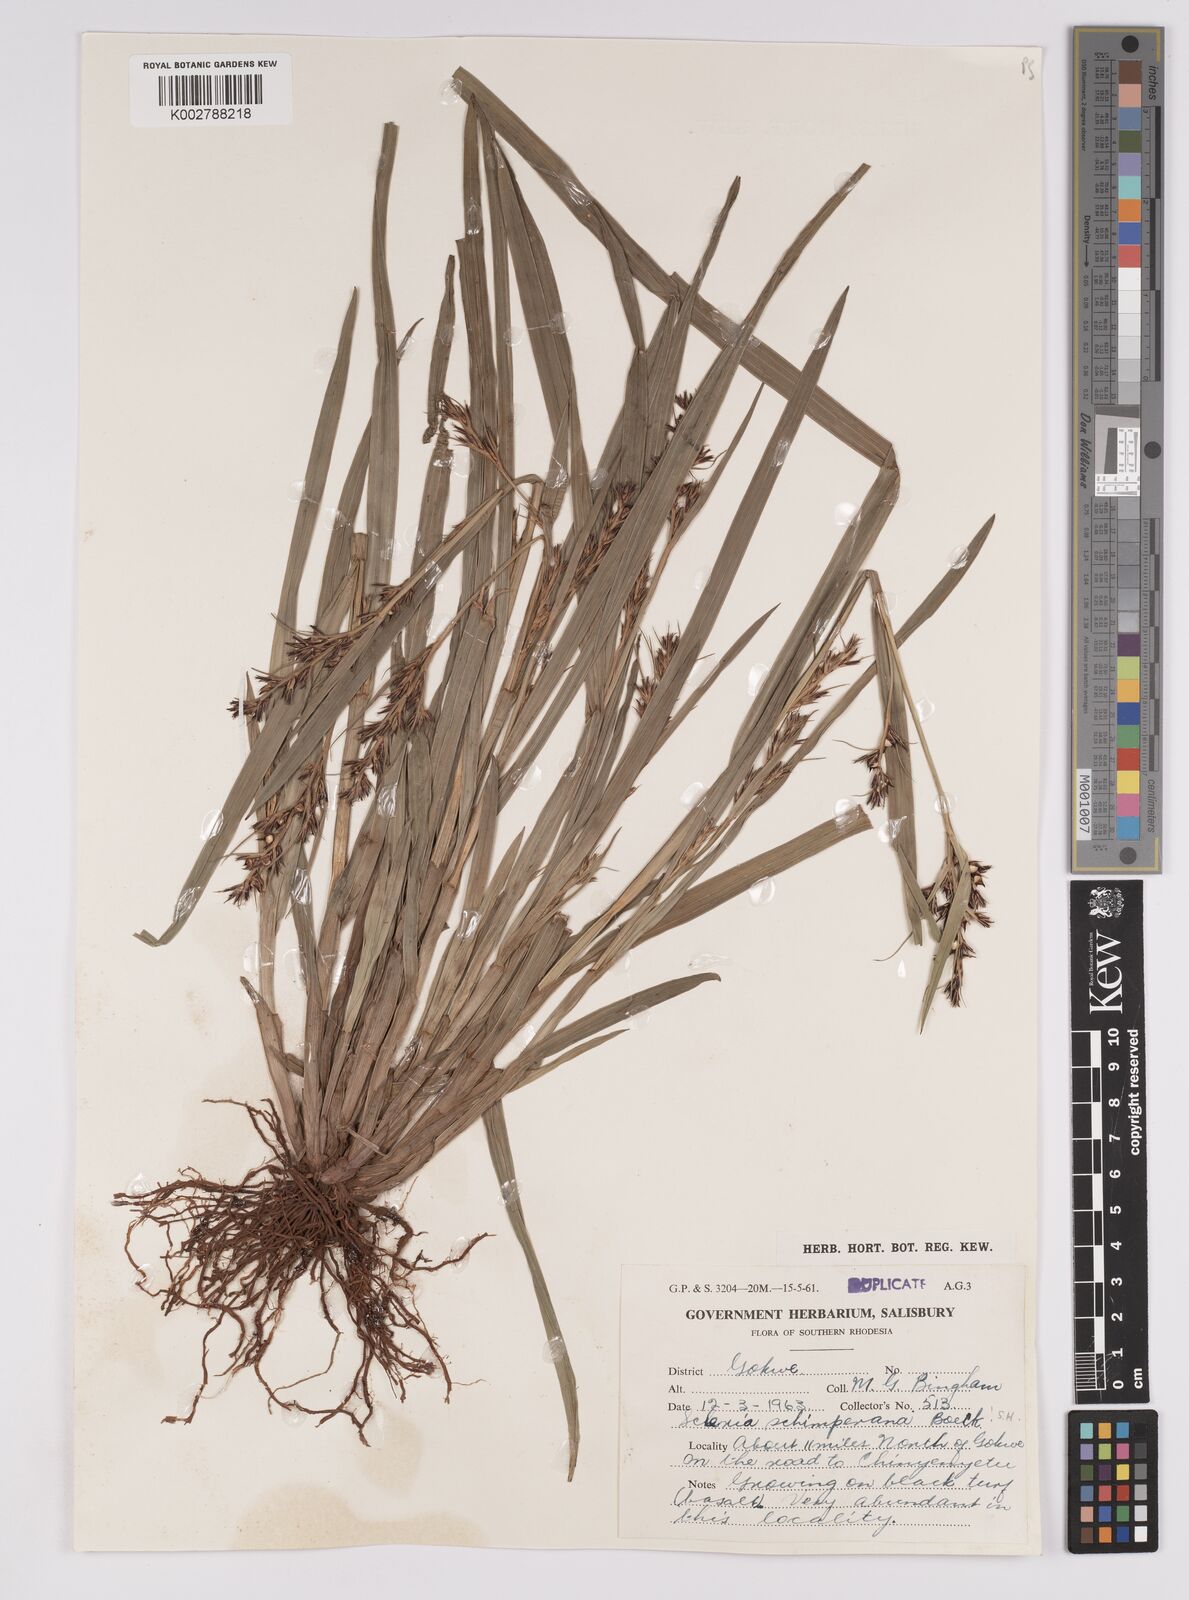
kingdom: Plantae
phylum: Tracheophyta
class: Liliopsida
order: Poales
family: Cyperaceae
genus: Scleria
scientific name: Scleria schimperiana
